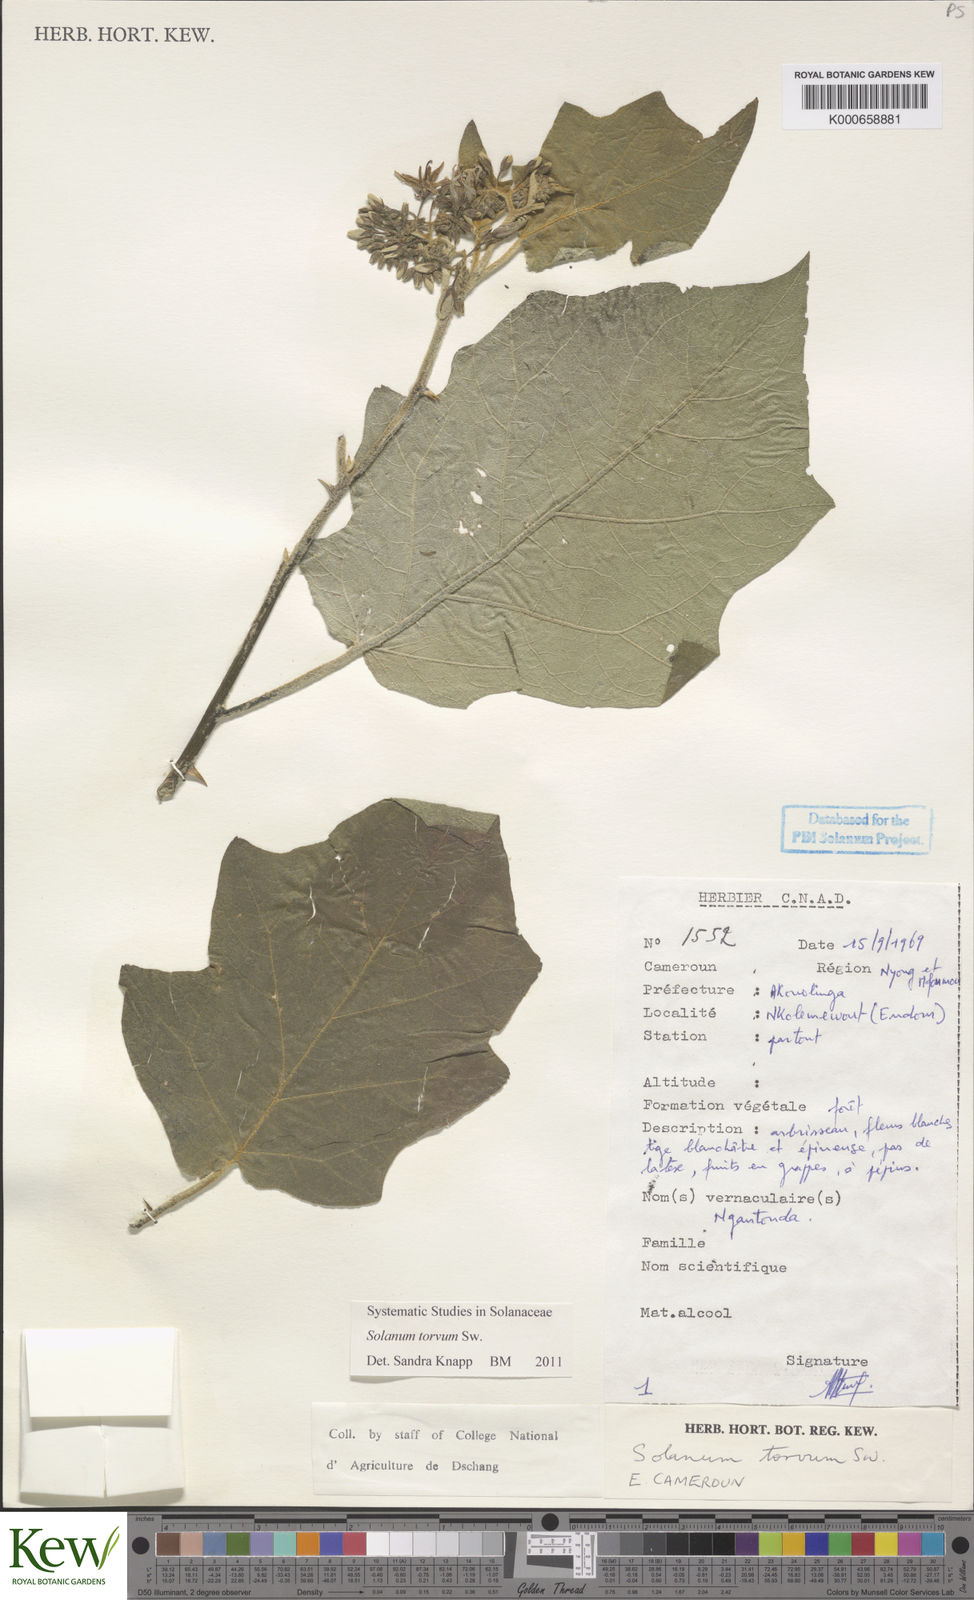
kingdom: Plantae
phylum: Tracheophyta
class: Magnoliopsida
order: Solanales
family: Solanaceae
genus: Solanum
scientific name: Solanum torvum
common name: Turkey berry
